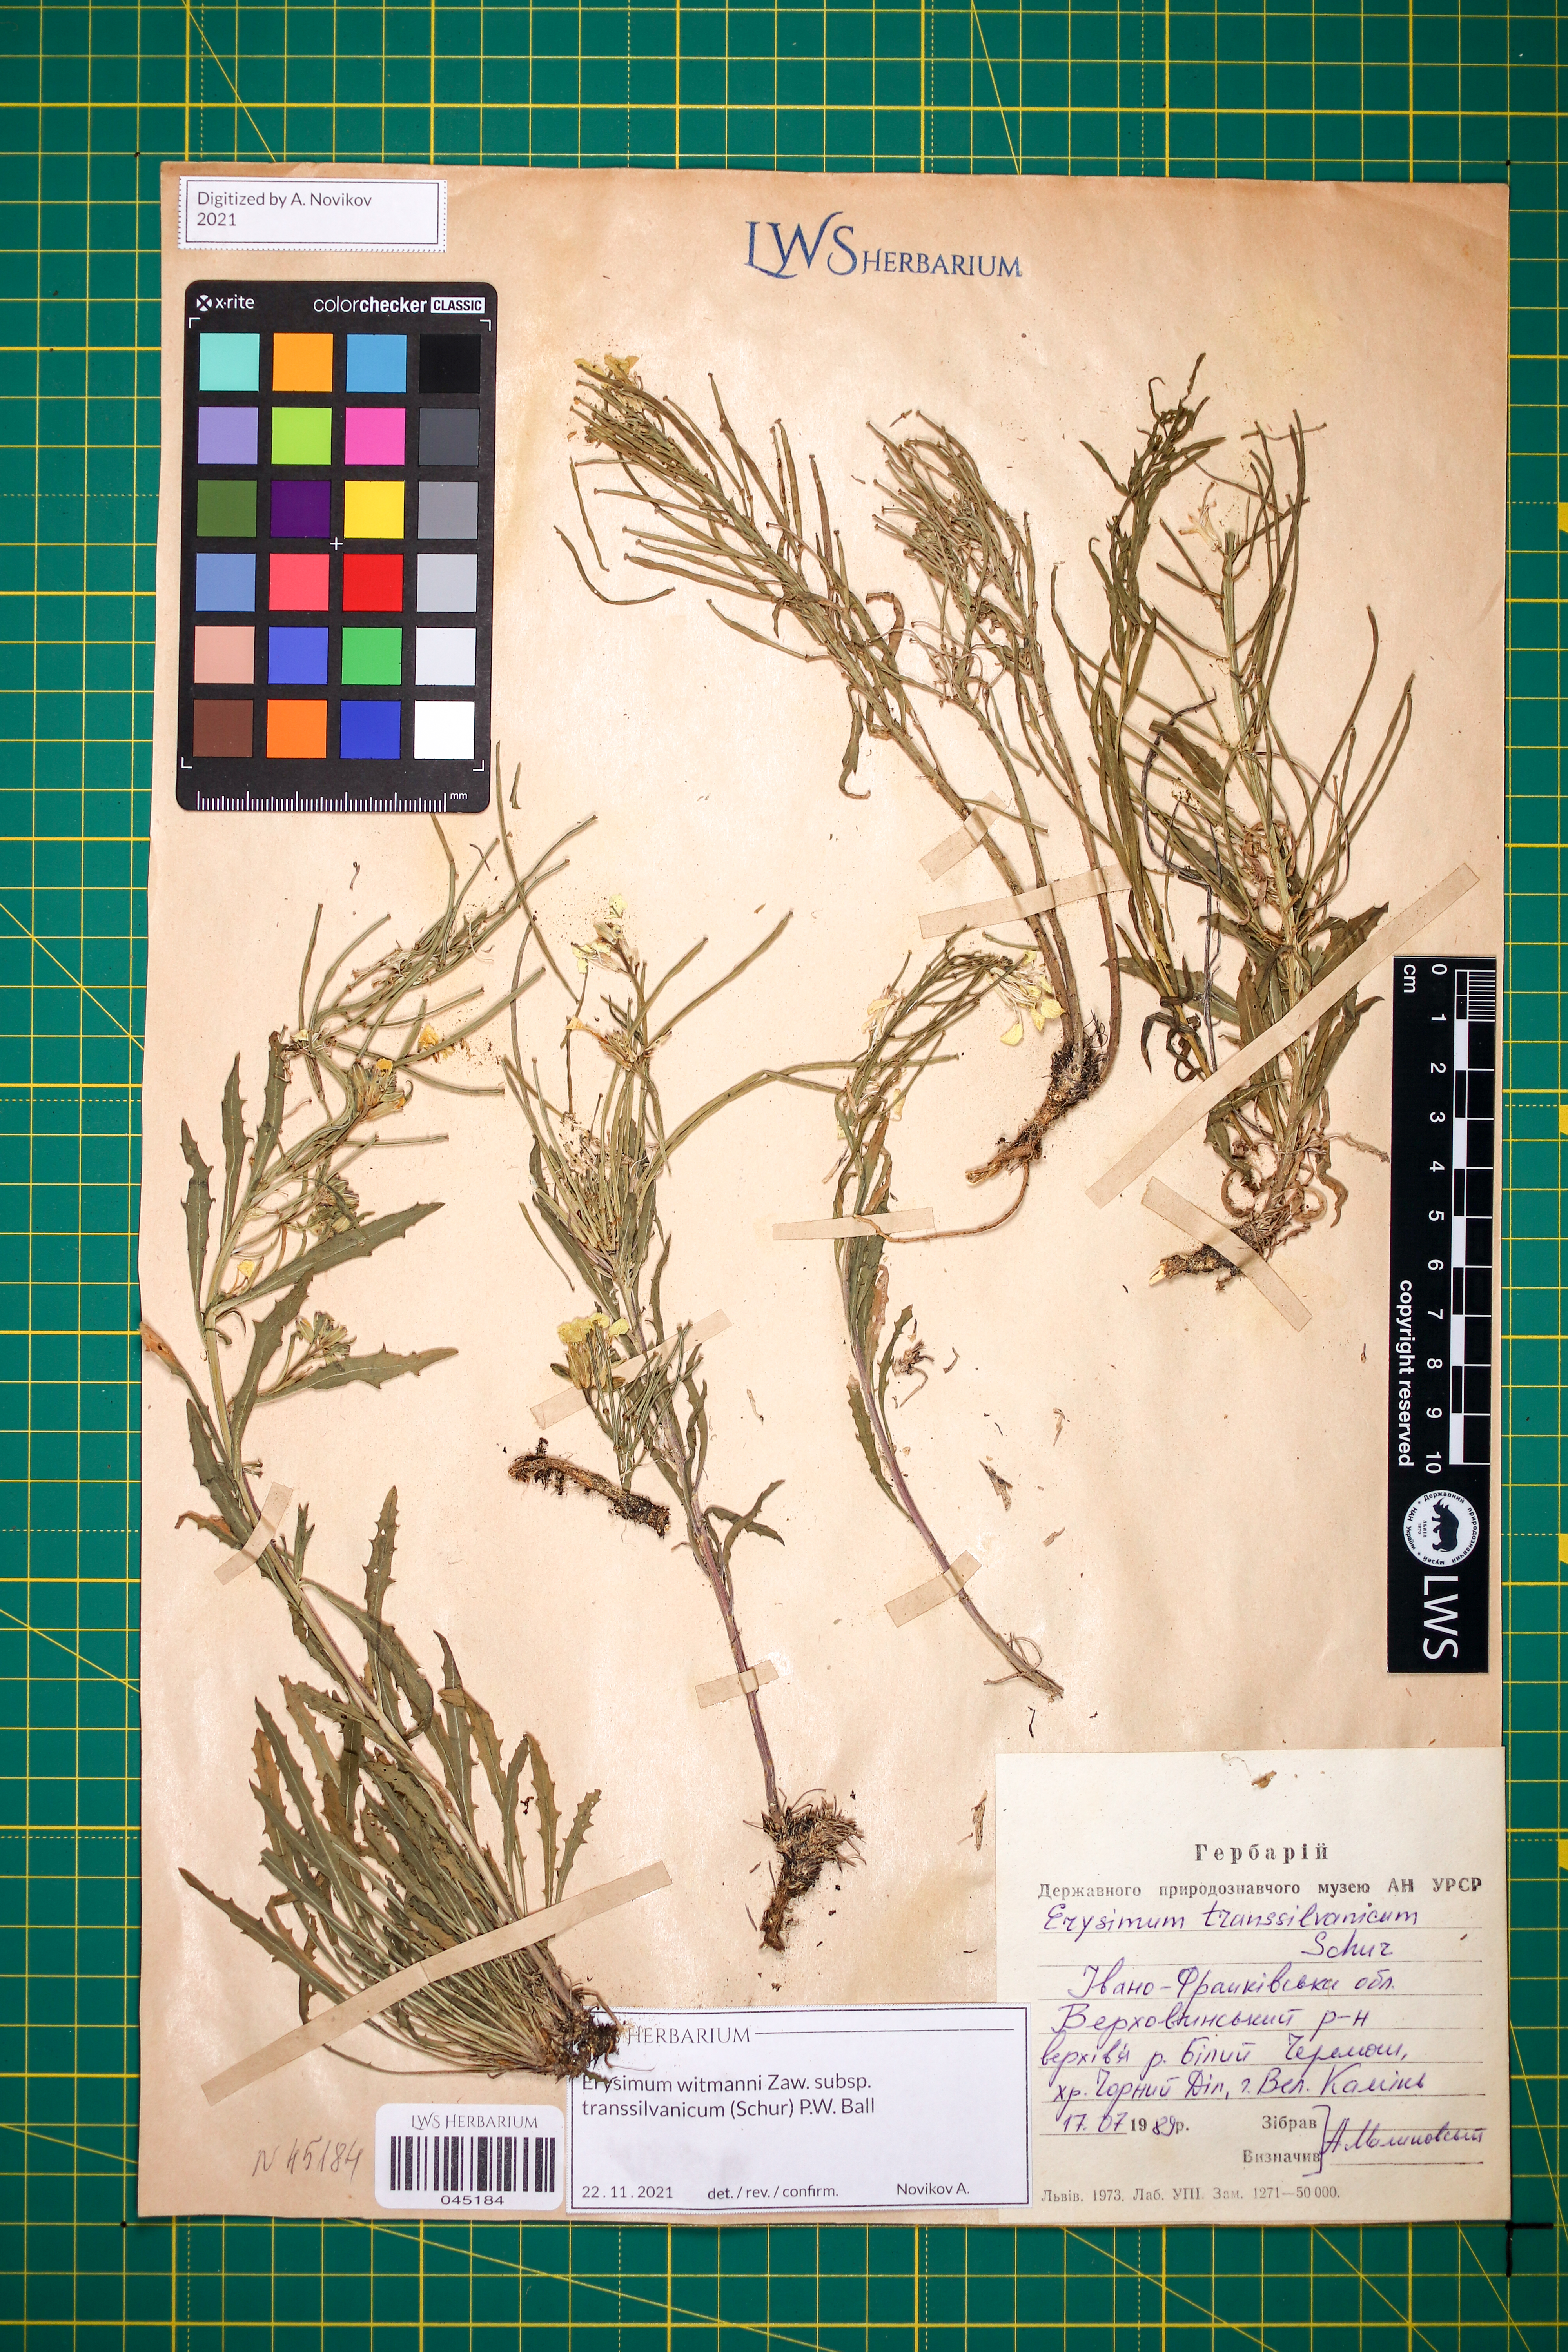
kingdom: Plantae
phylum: Tracheophyta
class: Magnoliopsida
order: Brassicales
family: Brassicaceae
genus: Erysimum
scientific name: Erysimum transsilvanicum
